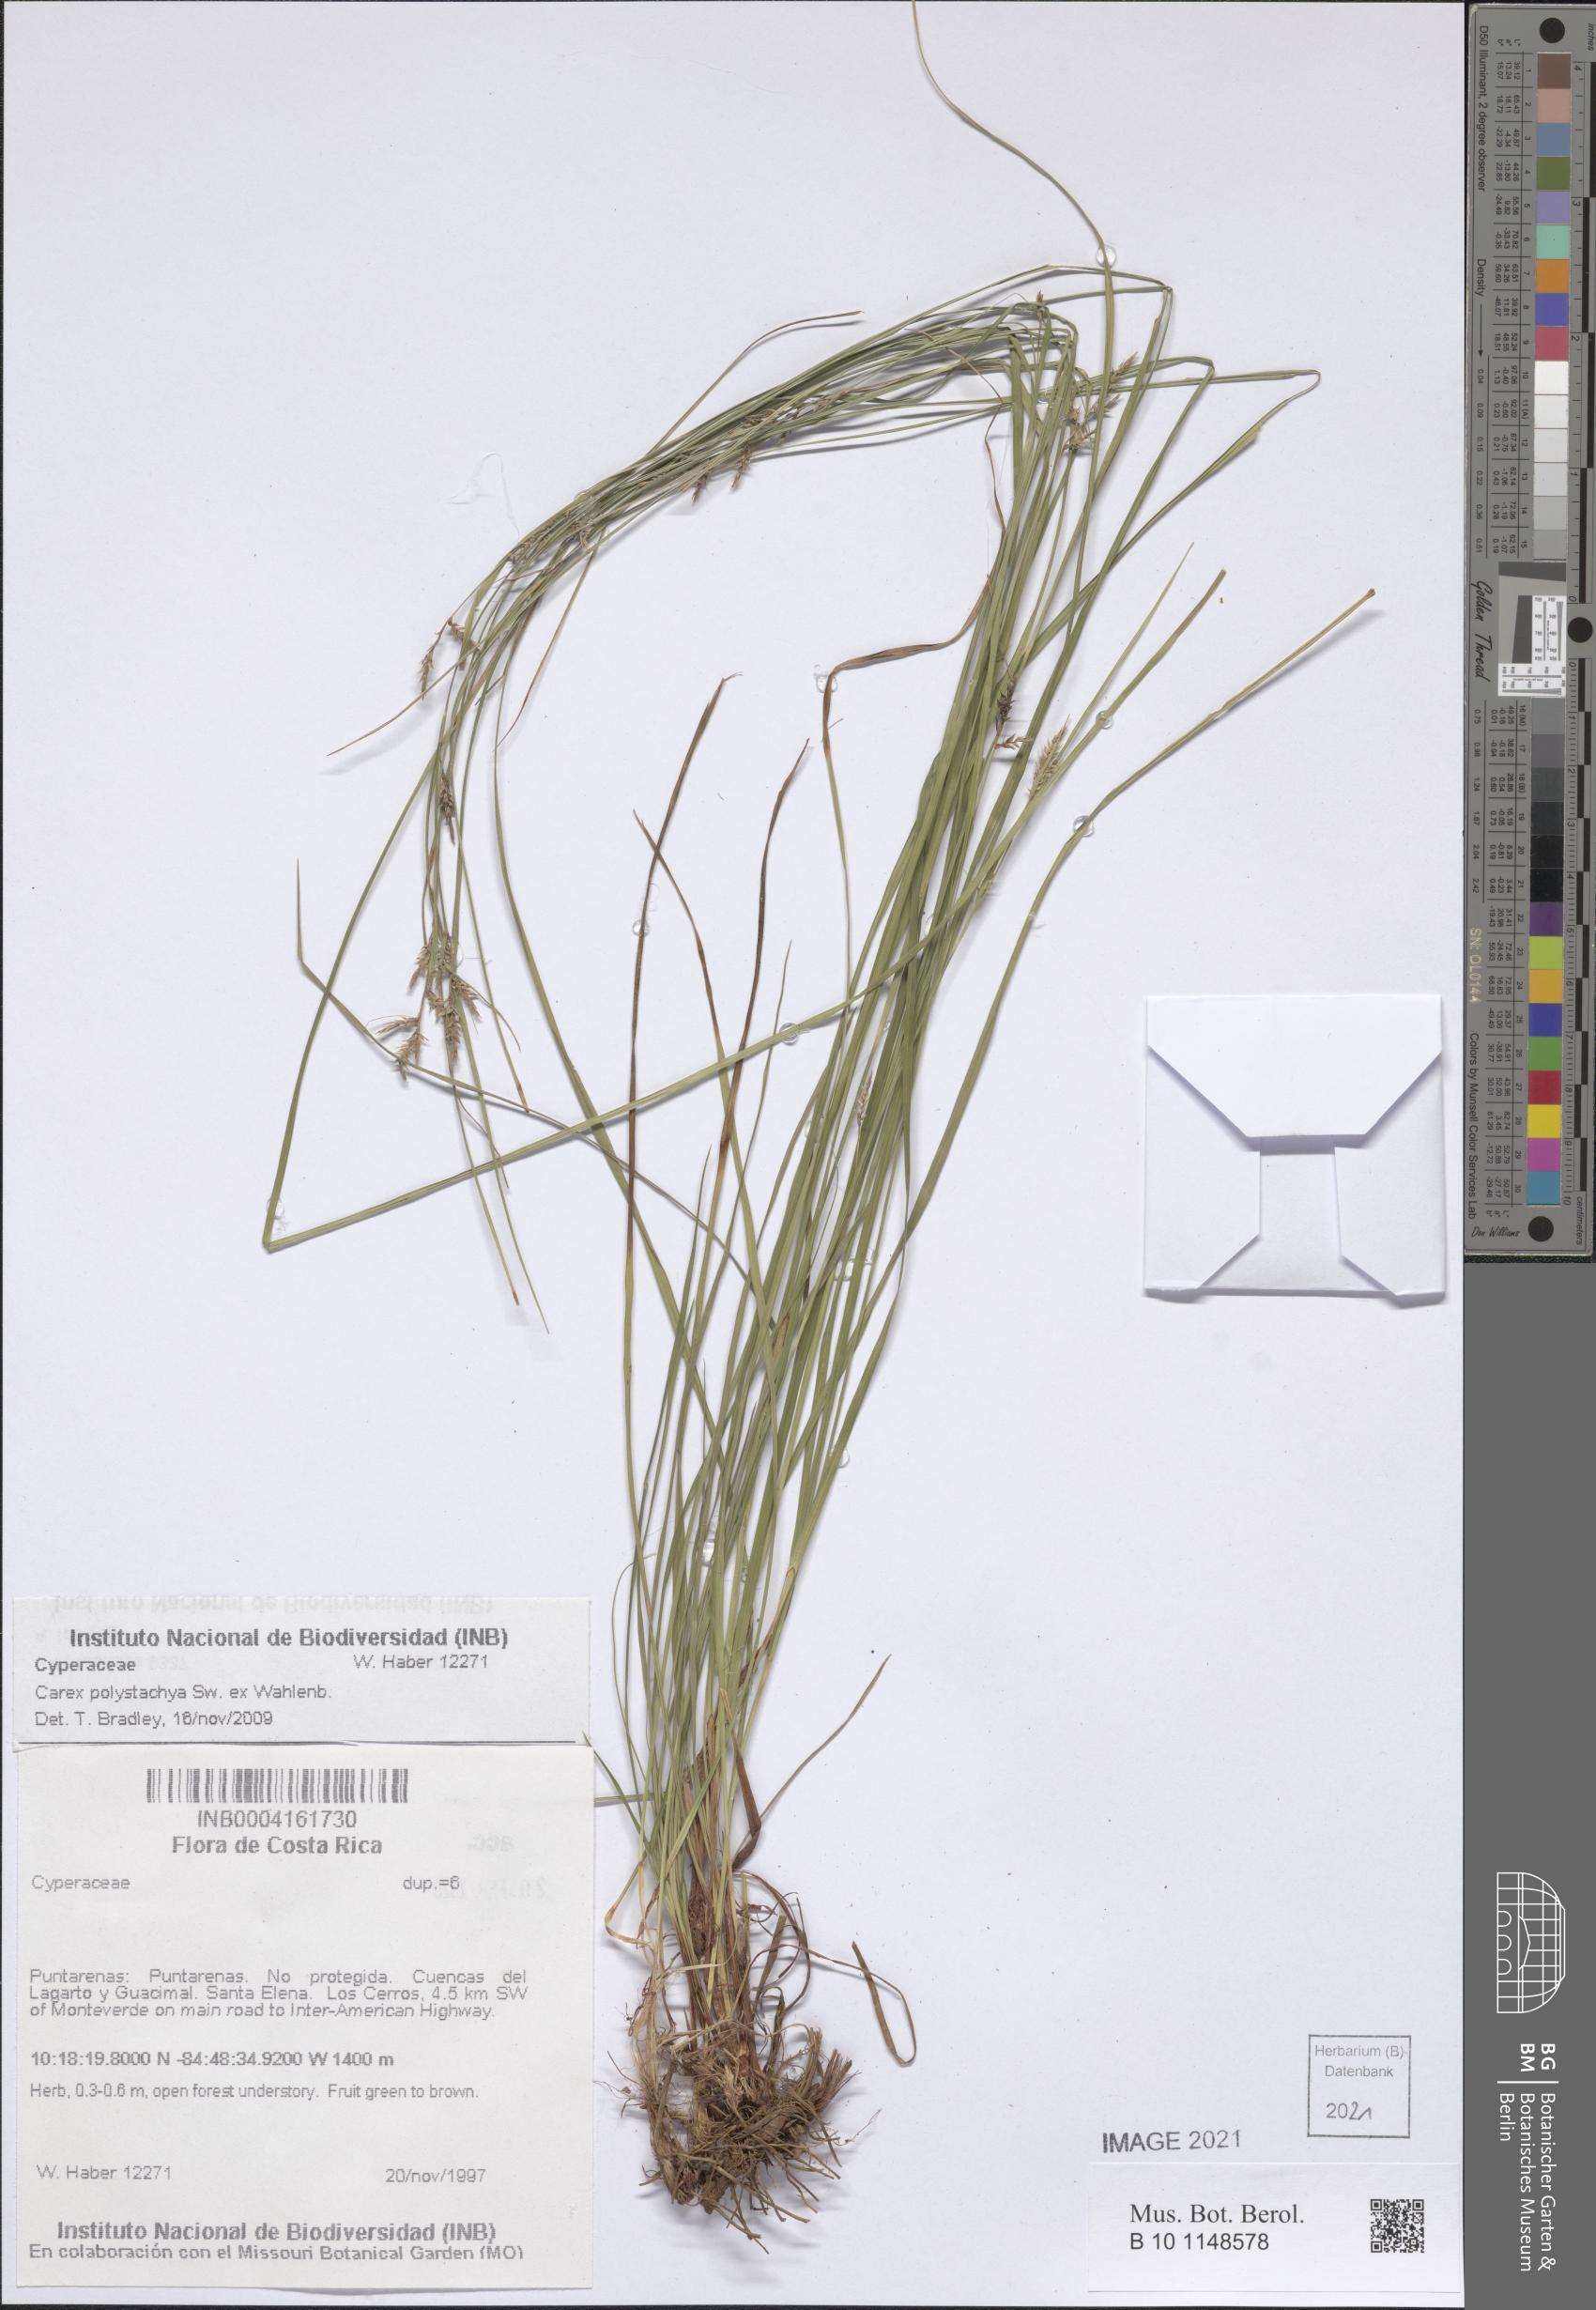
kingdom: Plantae
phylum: Tracheophyta
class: Liliopsida
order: Poales
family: Cyperaceae
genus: Carex
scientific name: Carex polystachya
